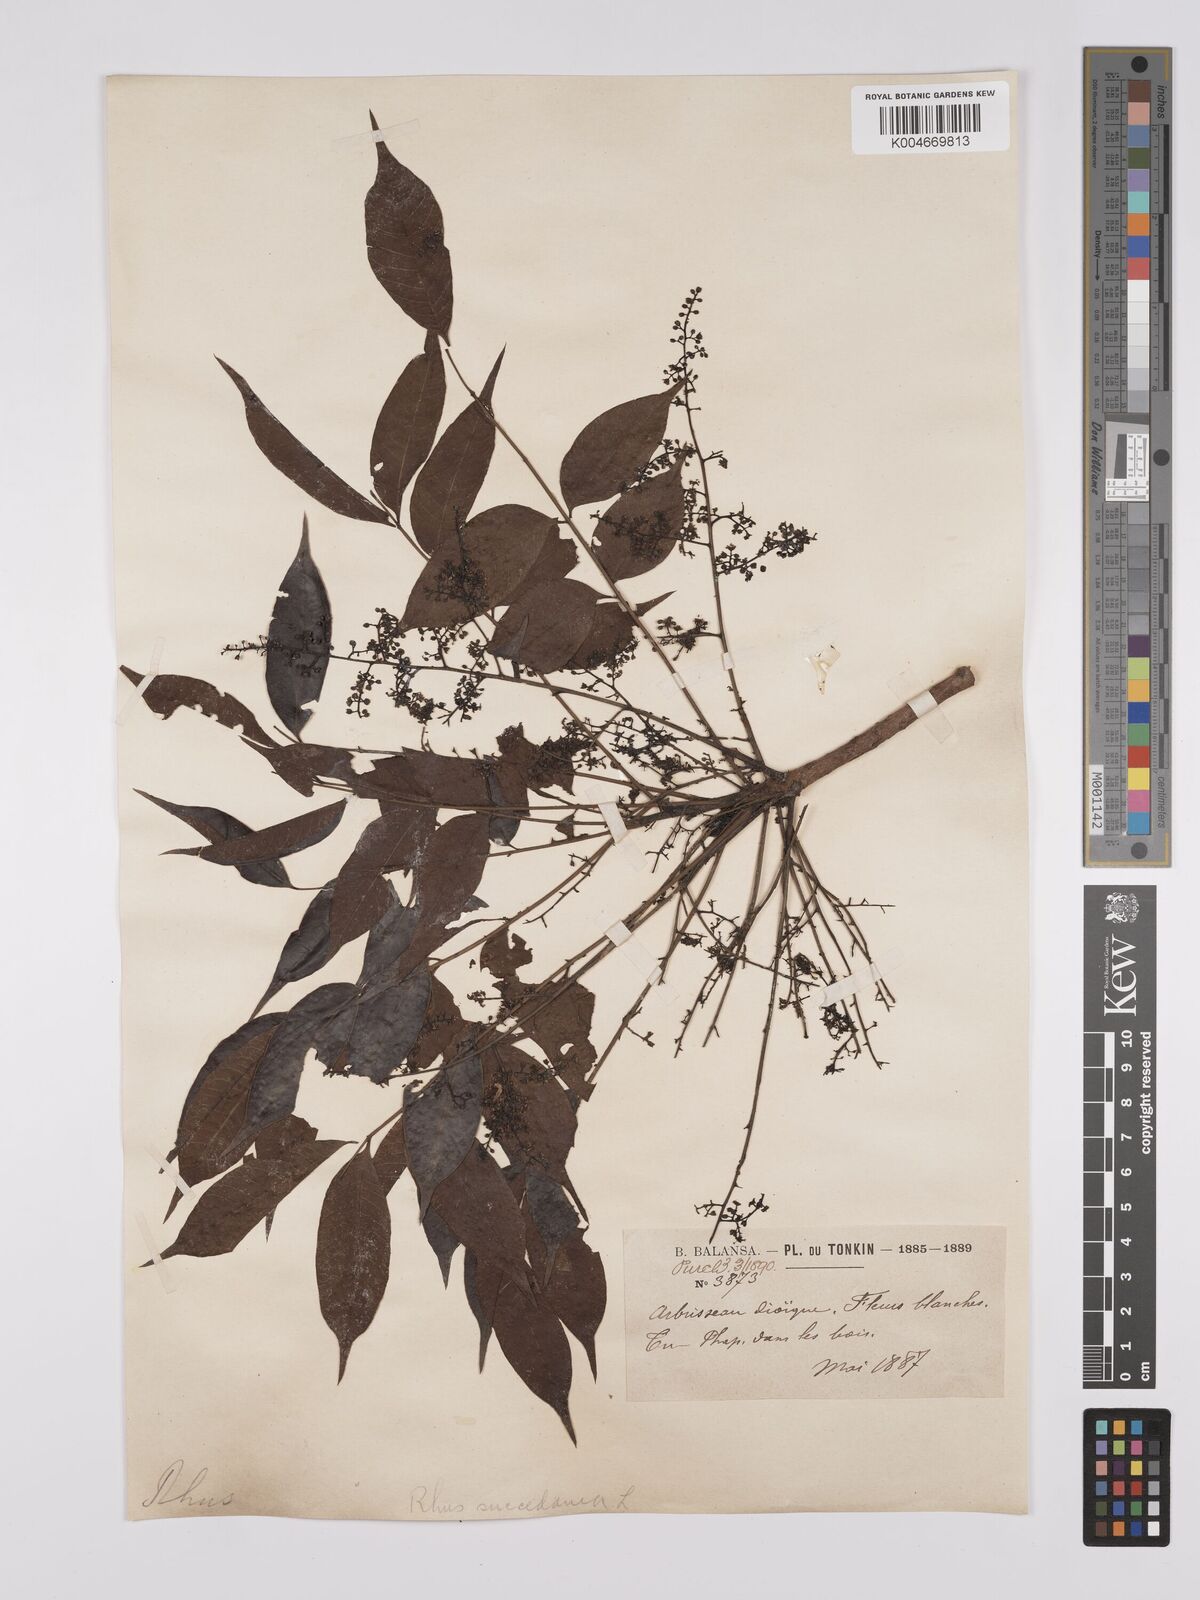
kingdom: Plantae
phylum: Tracheophyta
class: Magnoliopsida
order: Sapindales
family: Anacardiaceae
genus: Toxicodendron
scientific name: Toxicodendron succedaneum
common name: Wax tree
